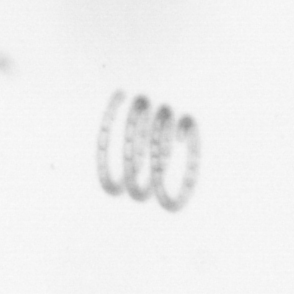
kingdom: Chromista
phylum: Ochrophyta
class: Bacillariophyceae
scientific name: Bacillariophyceae
